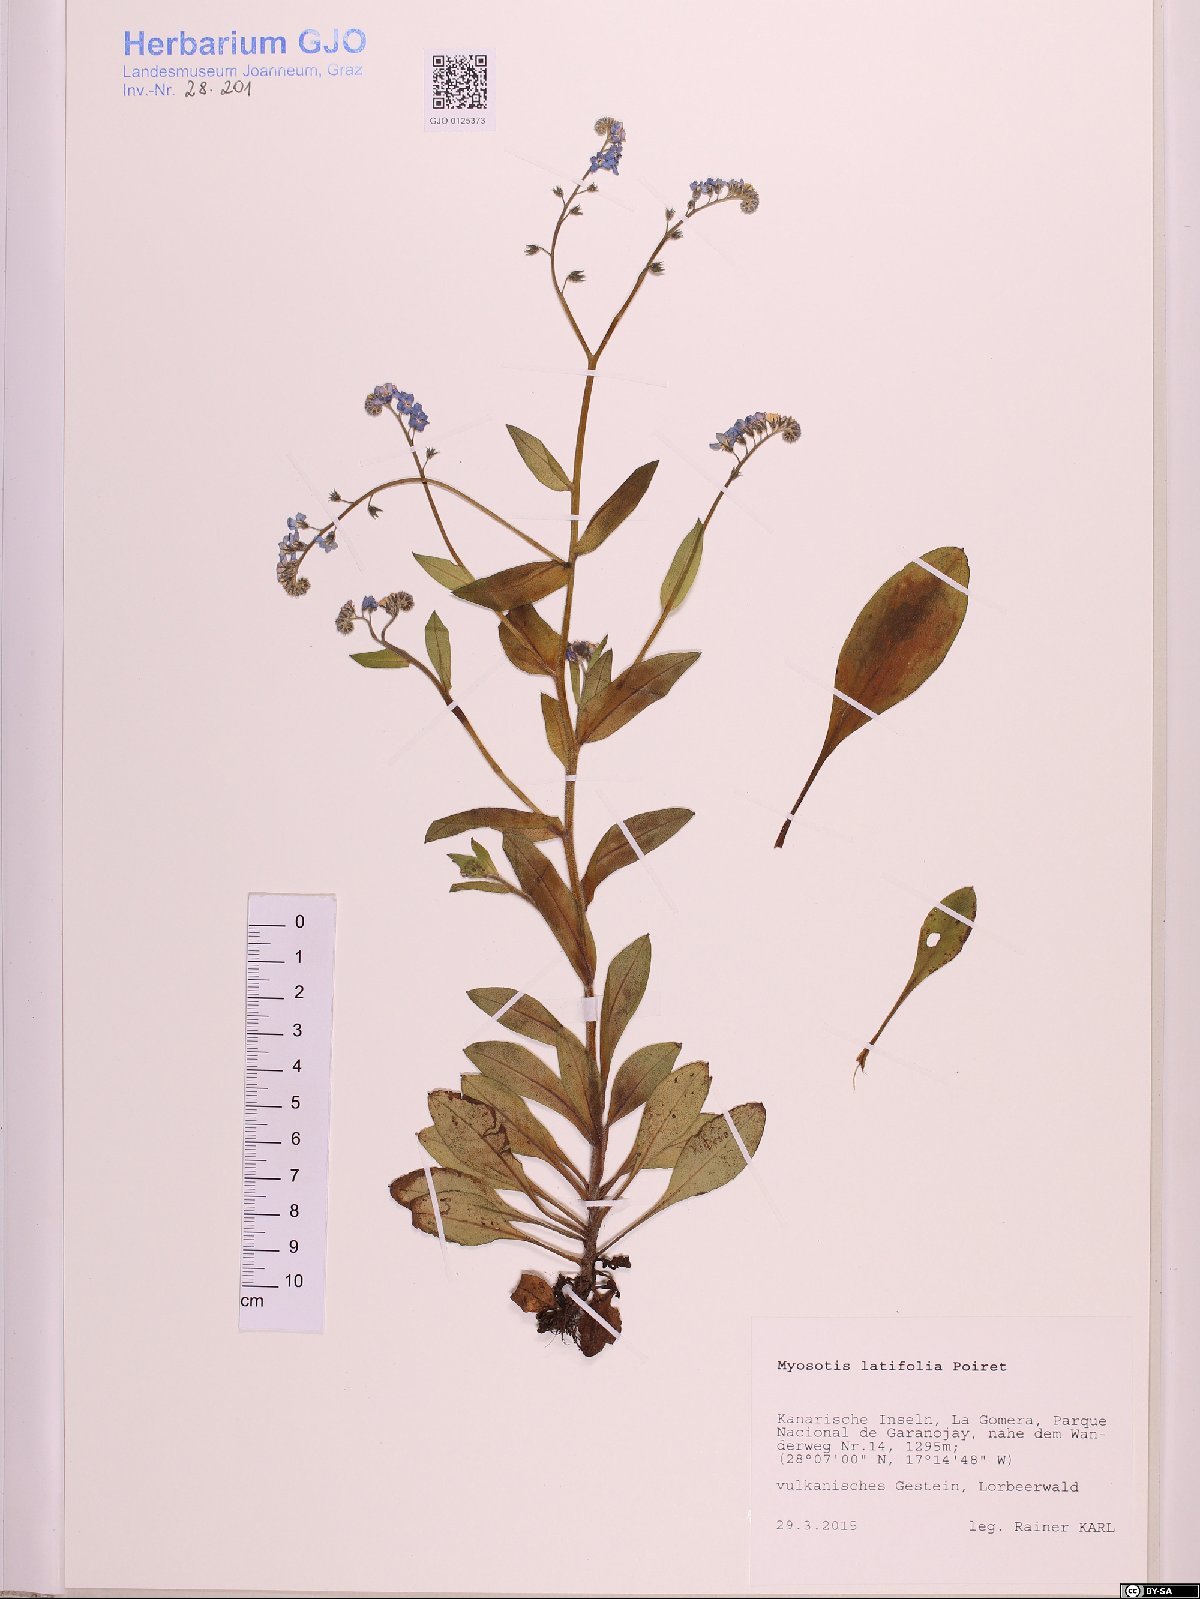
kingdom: Plantae
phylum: Tracheophyta
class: Magnoliopsida
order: Boraginales
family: Boraginaceae
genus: Myosotis
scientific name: Myosotis latifolia
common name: Broadleaf forget-me-not
